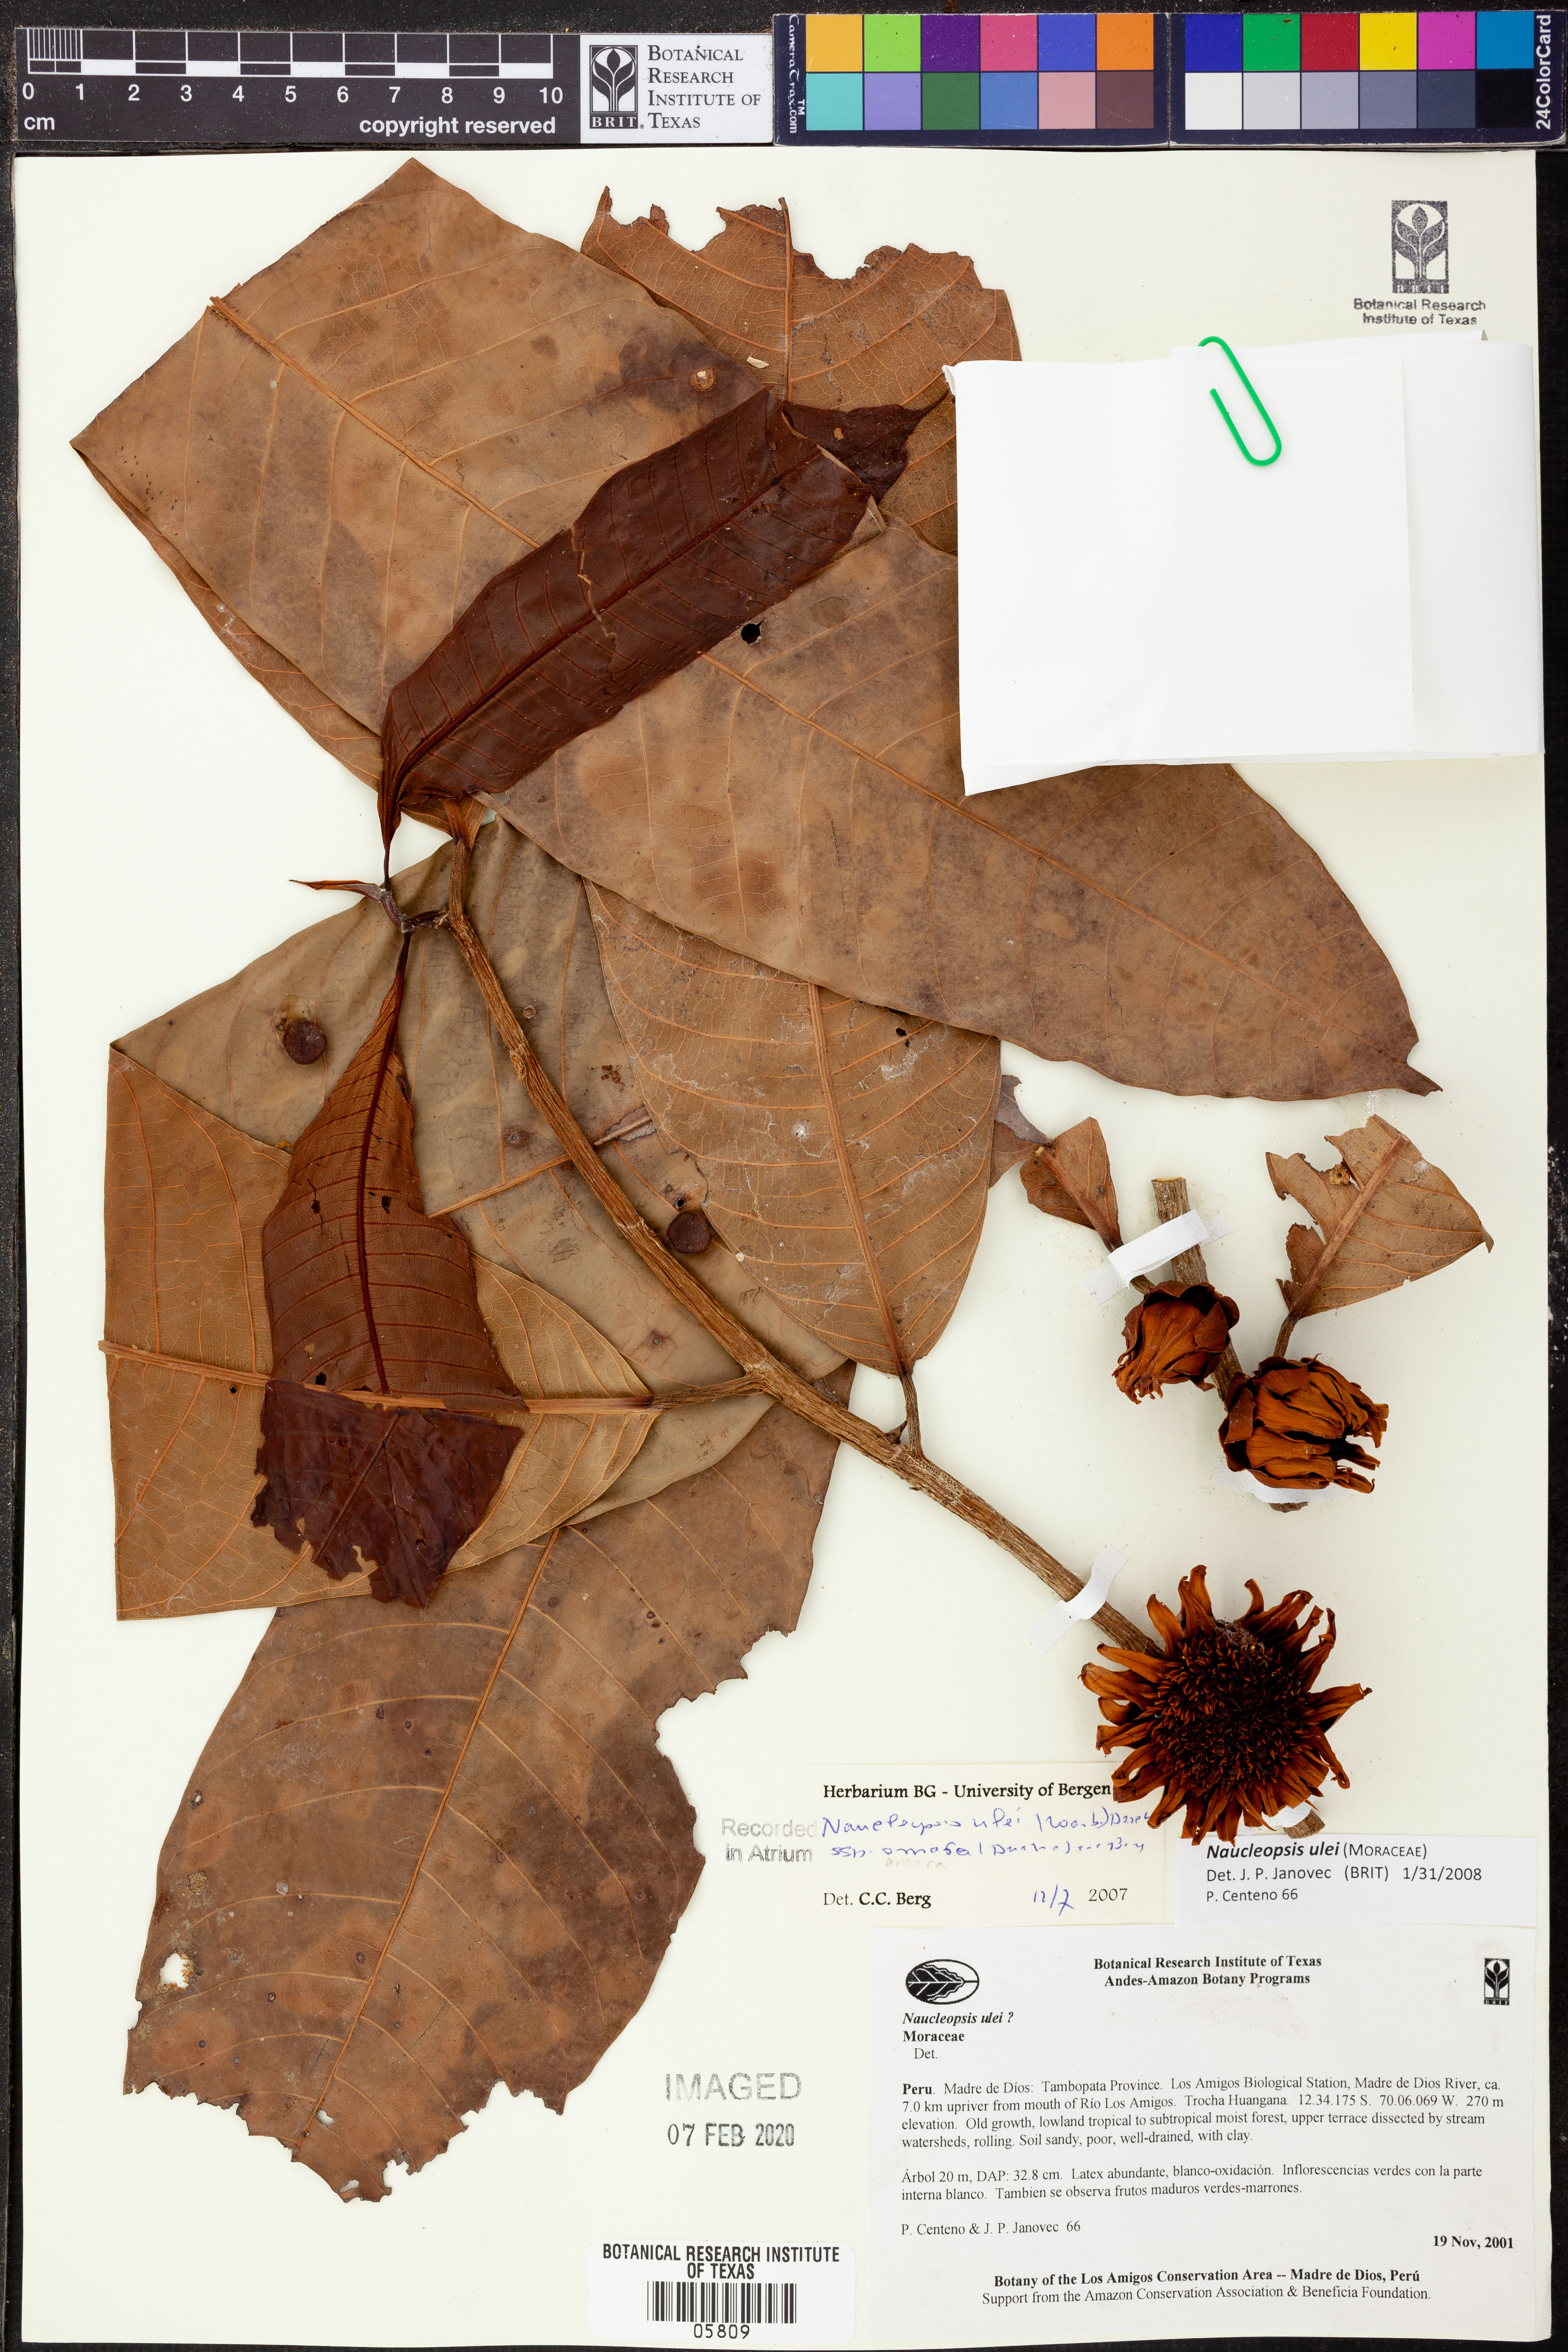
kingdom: Plantae
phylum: Tracheophyta
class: Magnoliopsida
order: Rosales
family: Moraceae
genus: Naucleopsis
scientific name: Naucleopsis
